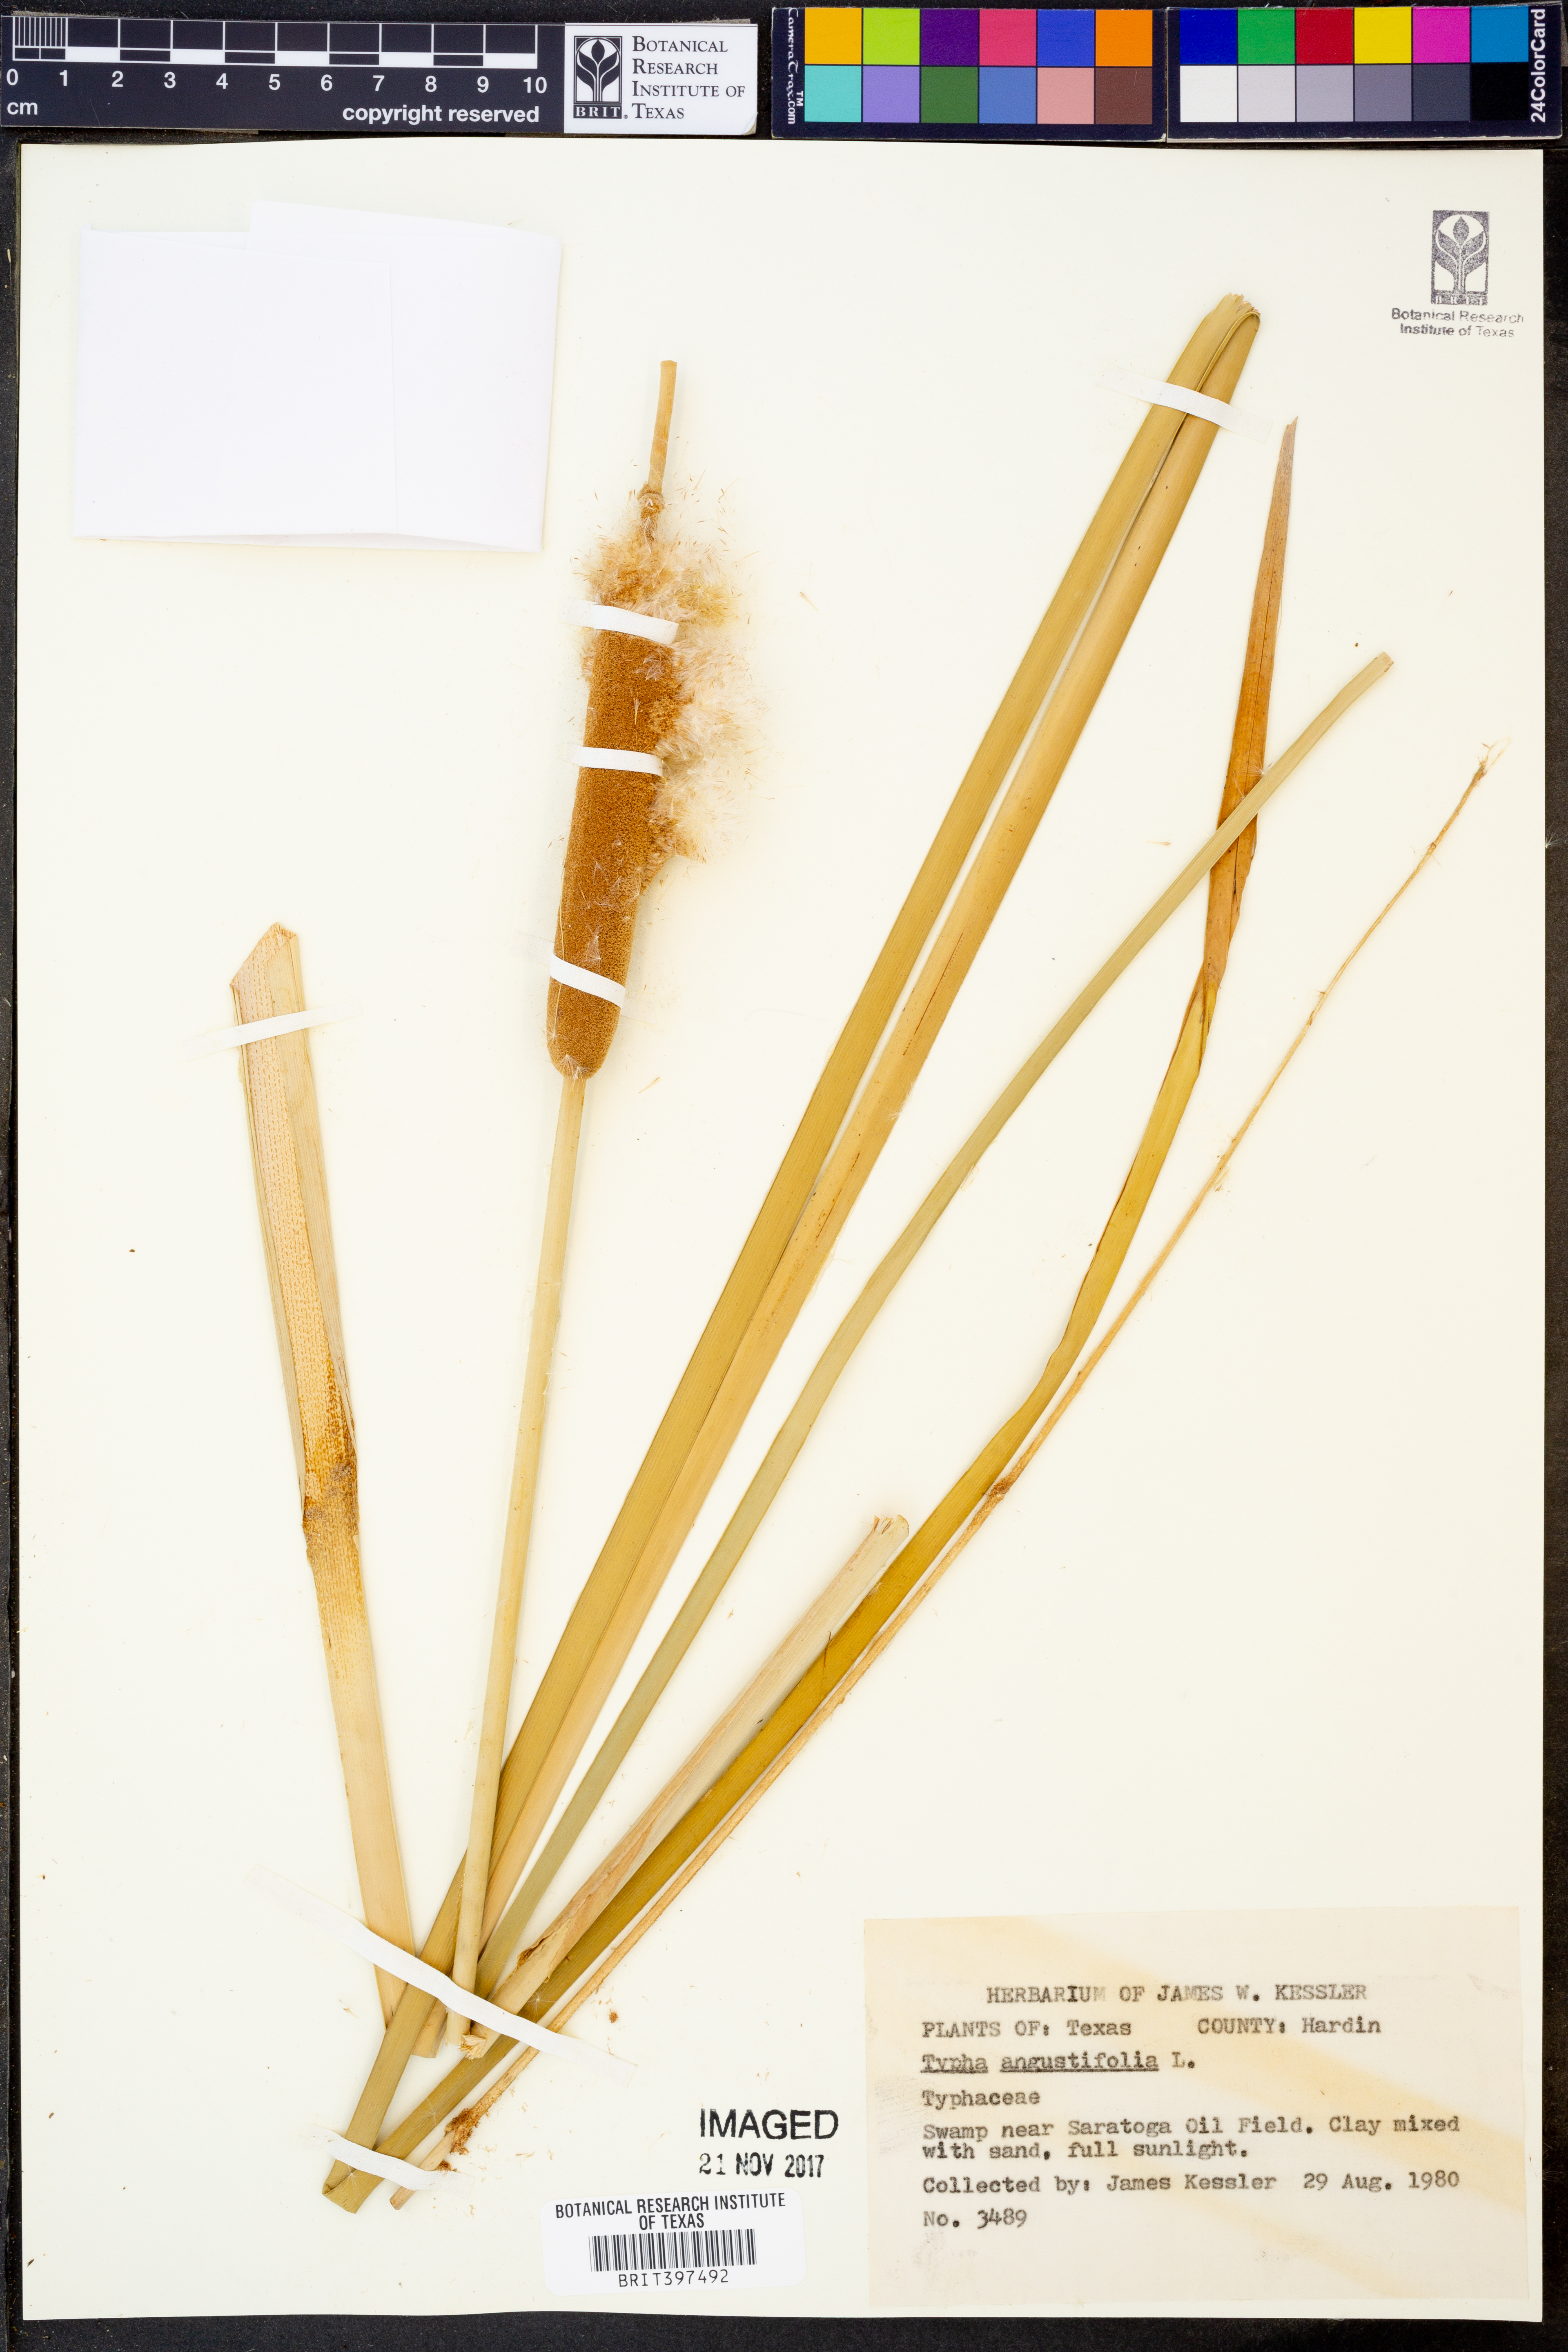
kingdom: Plantae
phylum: Tracheophyta
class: Liliopsida
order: Poales
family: Typhaceae
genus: Typha
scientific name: Typha angustifolia
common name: Lesser bulrush
